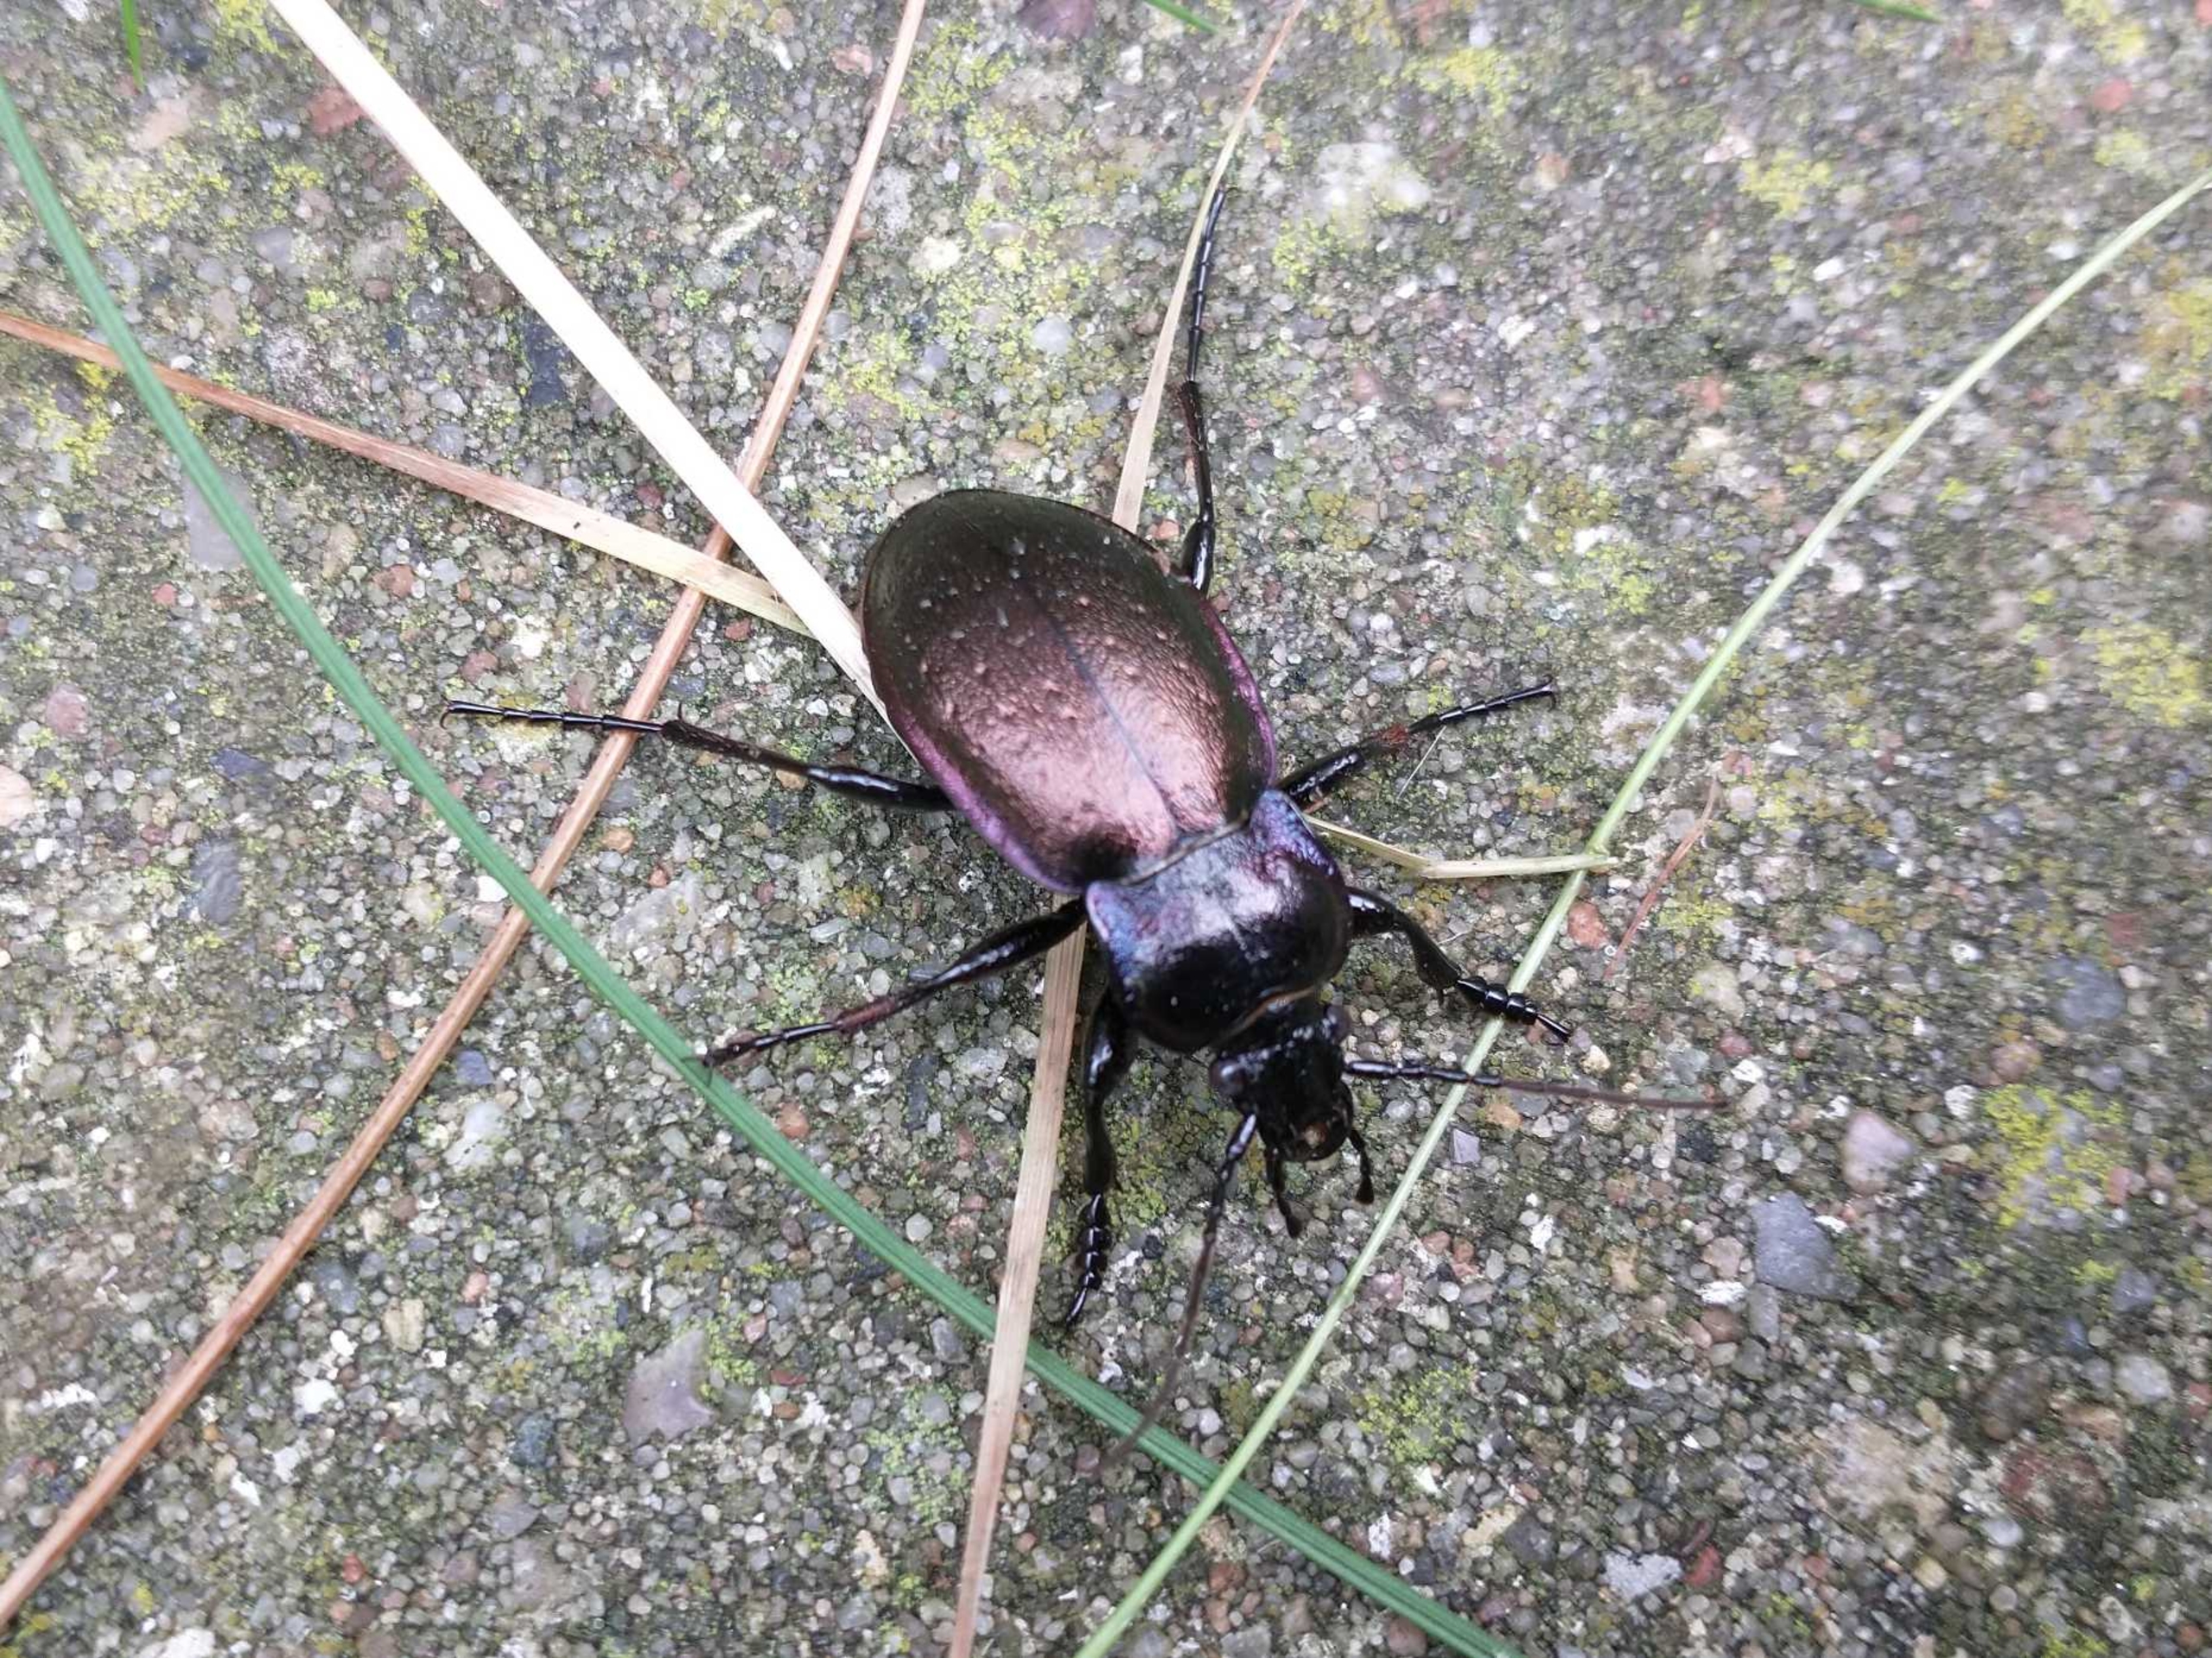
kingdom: Animalia
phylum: Arthropoda
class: Insecta
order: Coleoptera
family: Carabidae
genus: Carabus
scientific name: Carabus nemoralis
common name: Kratløber
